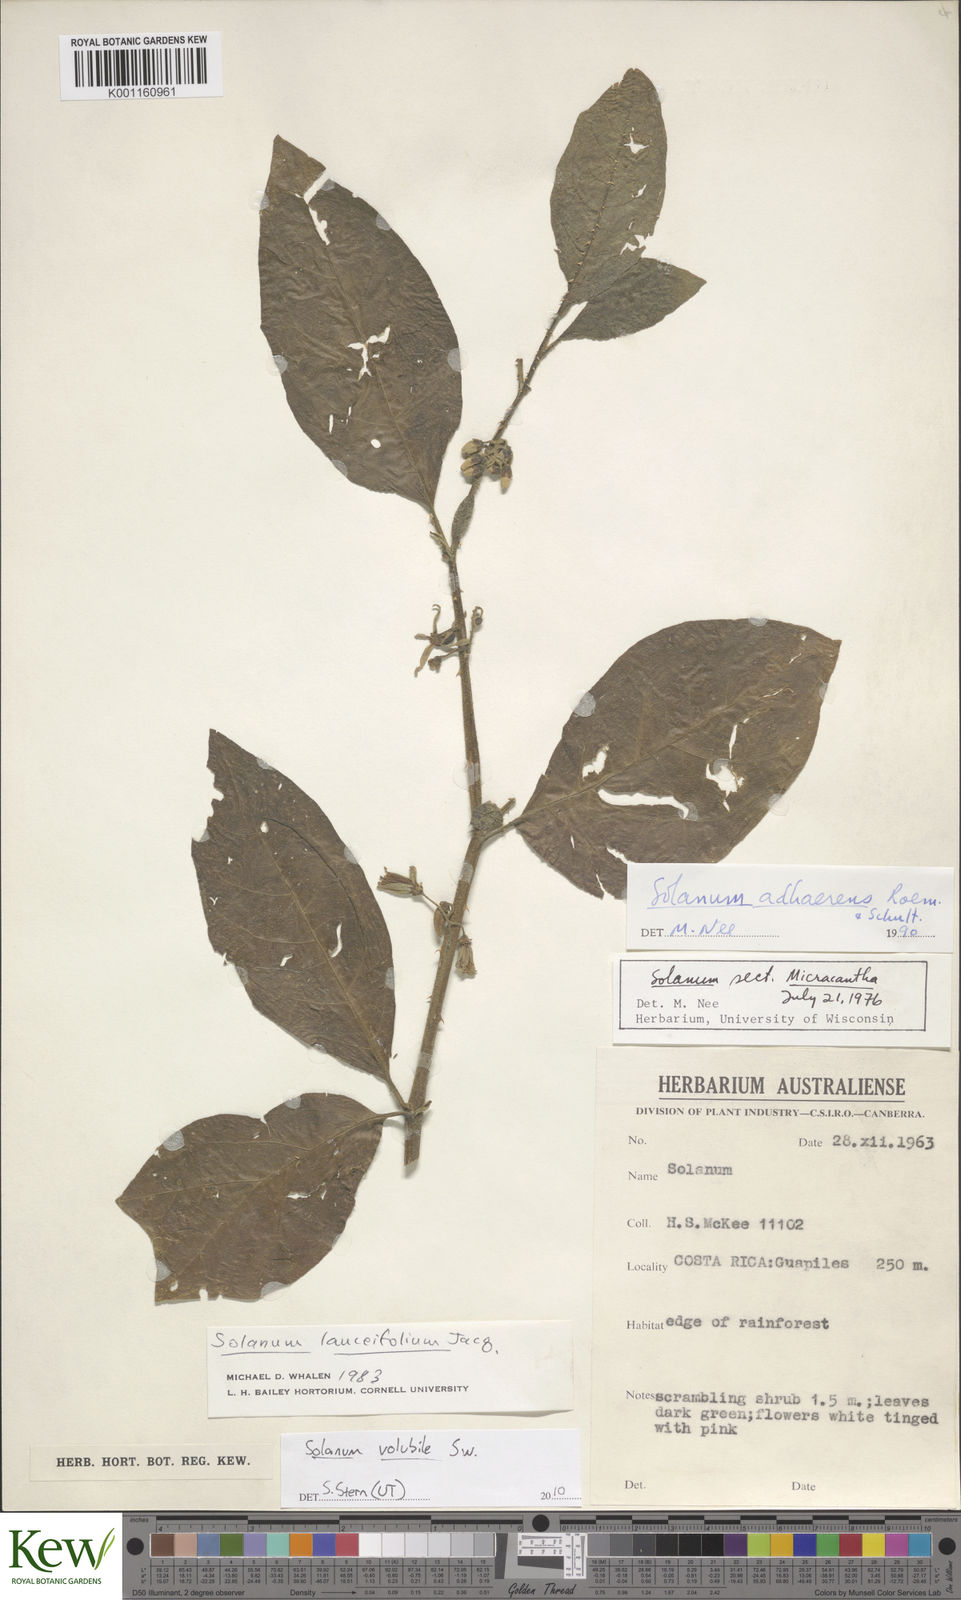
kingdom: Plantae
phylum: Tracheophyta
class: Magnoliopsida
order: Solanales
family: Solanaceae
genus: Solanum
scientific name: Solanum volubile
